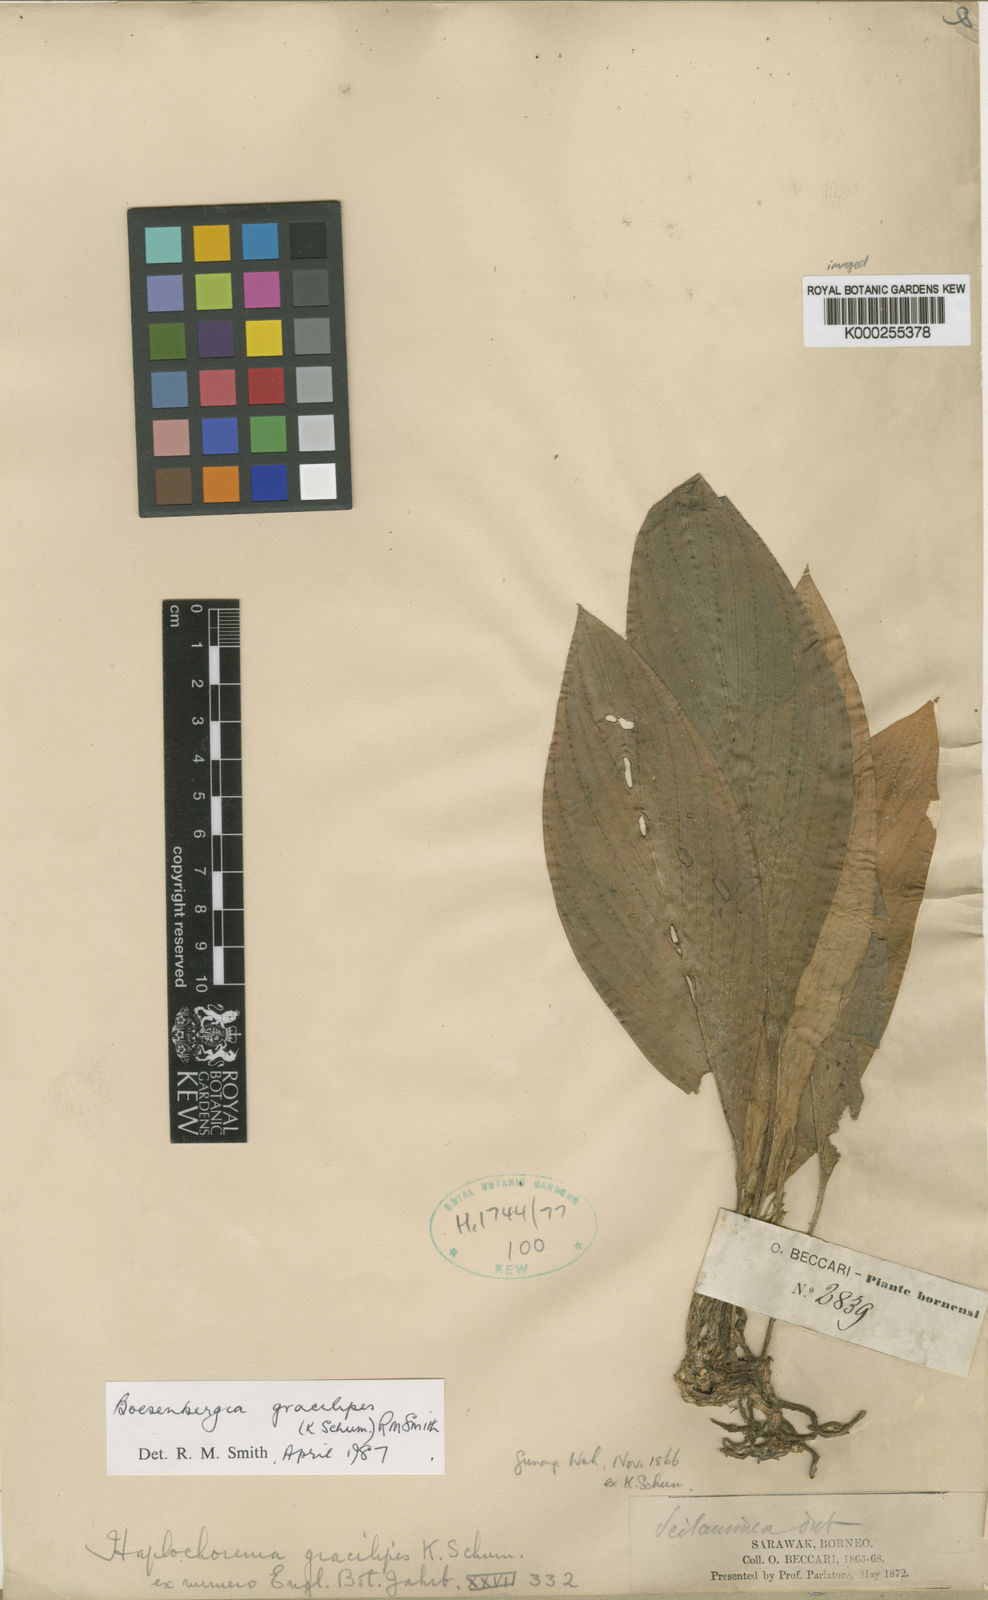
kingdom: Plantae
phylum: Tracheophyta
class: Liliopsida
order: Zingiberales
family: Zingiberaceae
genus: Scaphochlamys
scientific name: Scaphochlamys gracilipes
